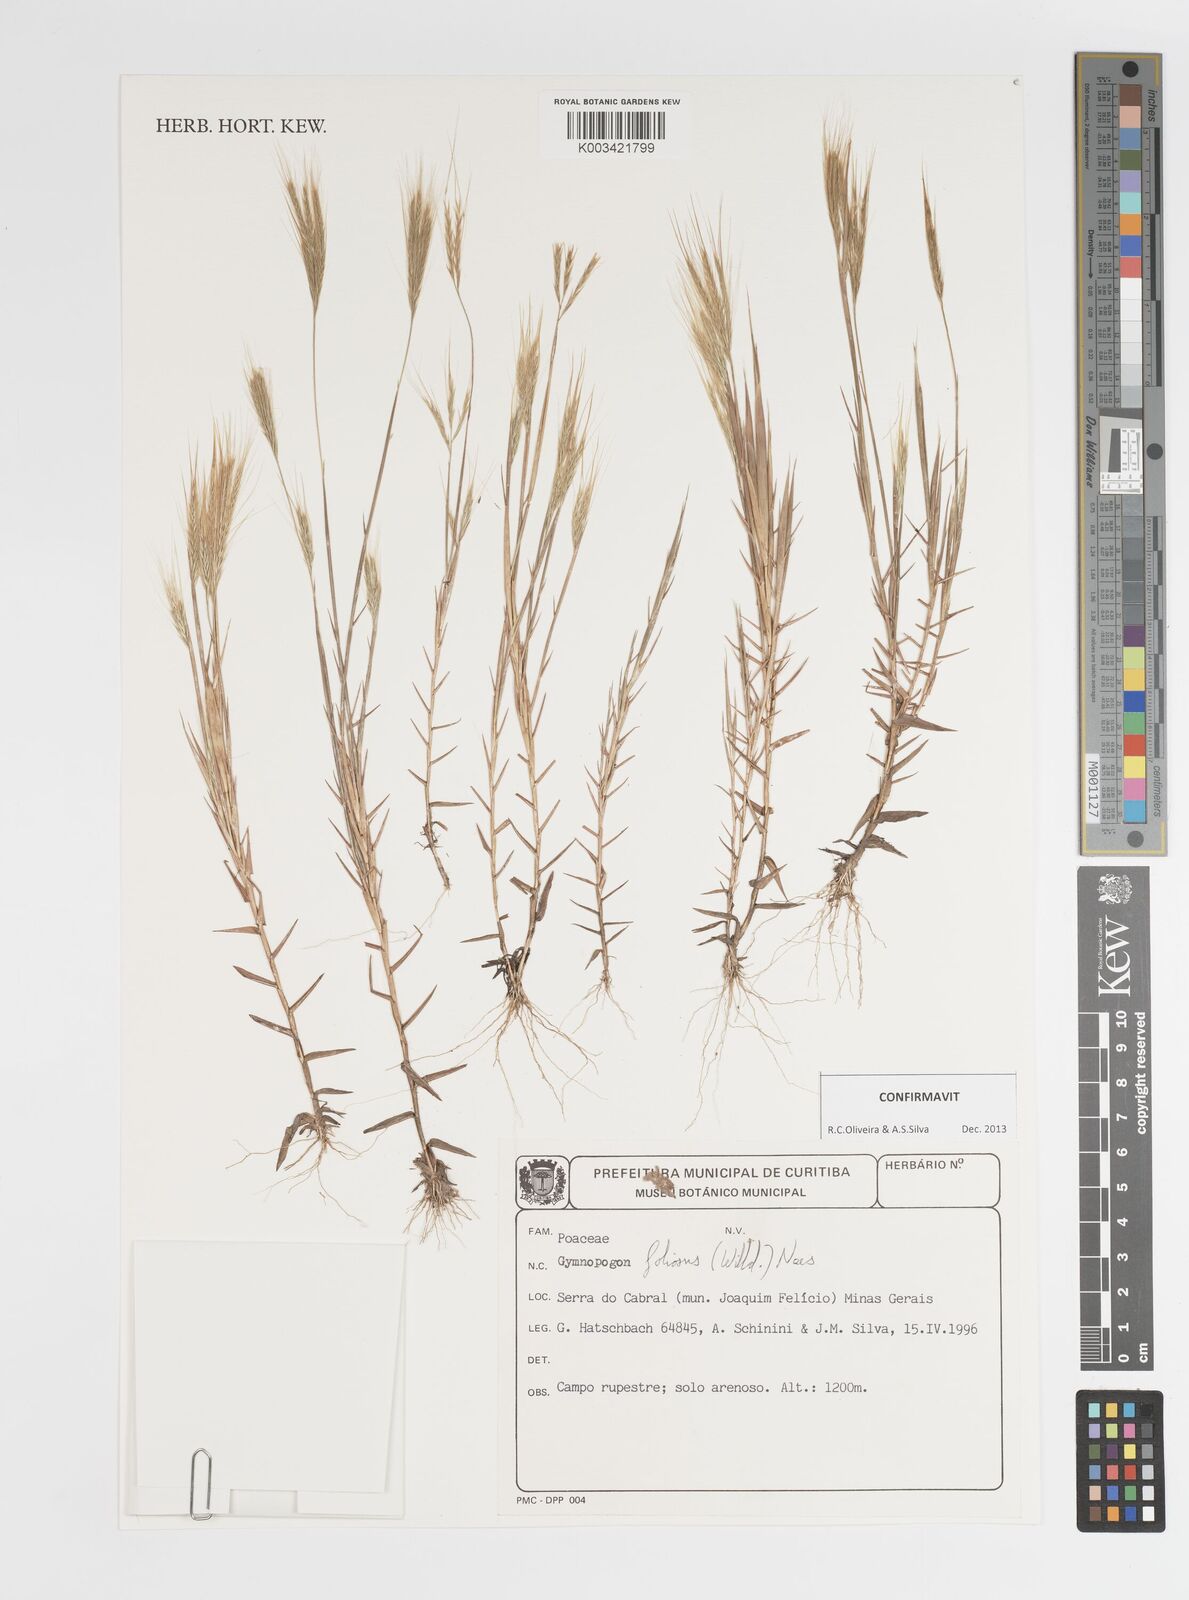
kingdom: Plantae
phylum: Tracheophyta
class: Liliopsida
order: Poales
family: Poaceae
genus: Gymnopogon
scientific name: Gymnopogon foliosus
